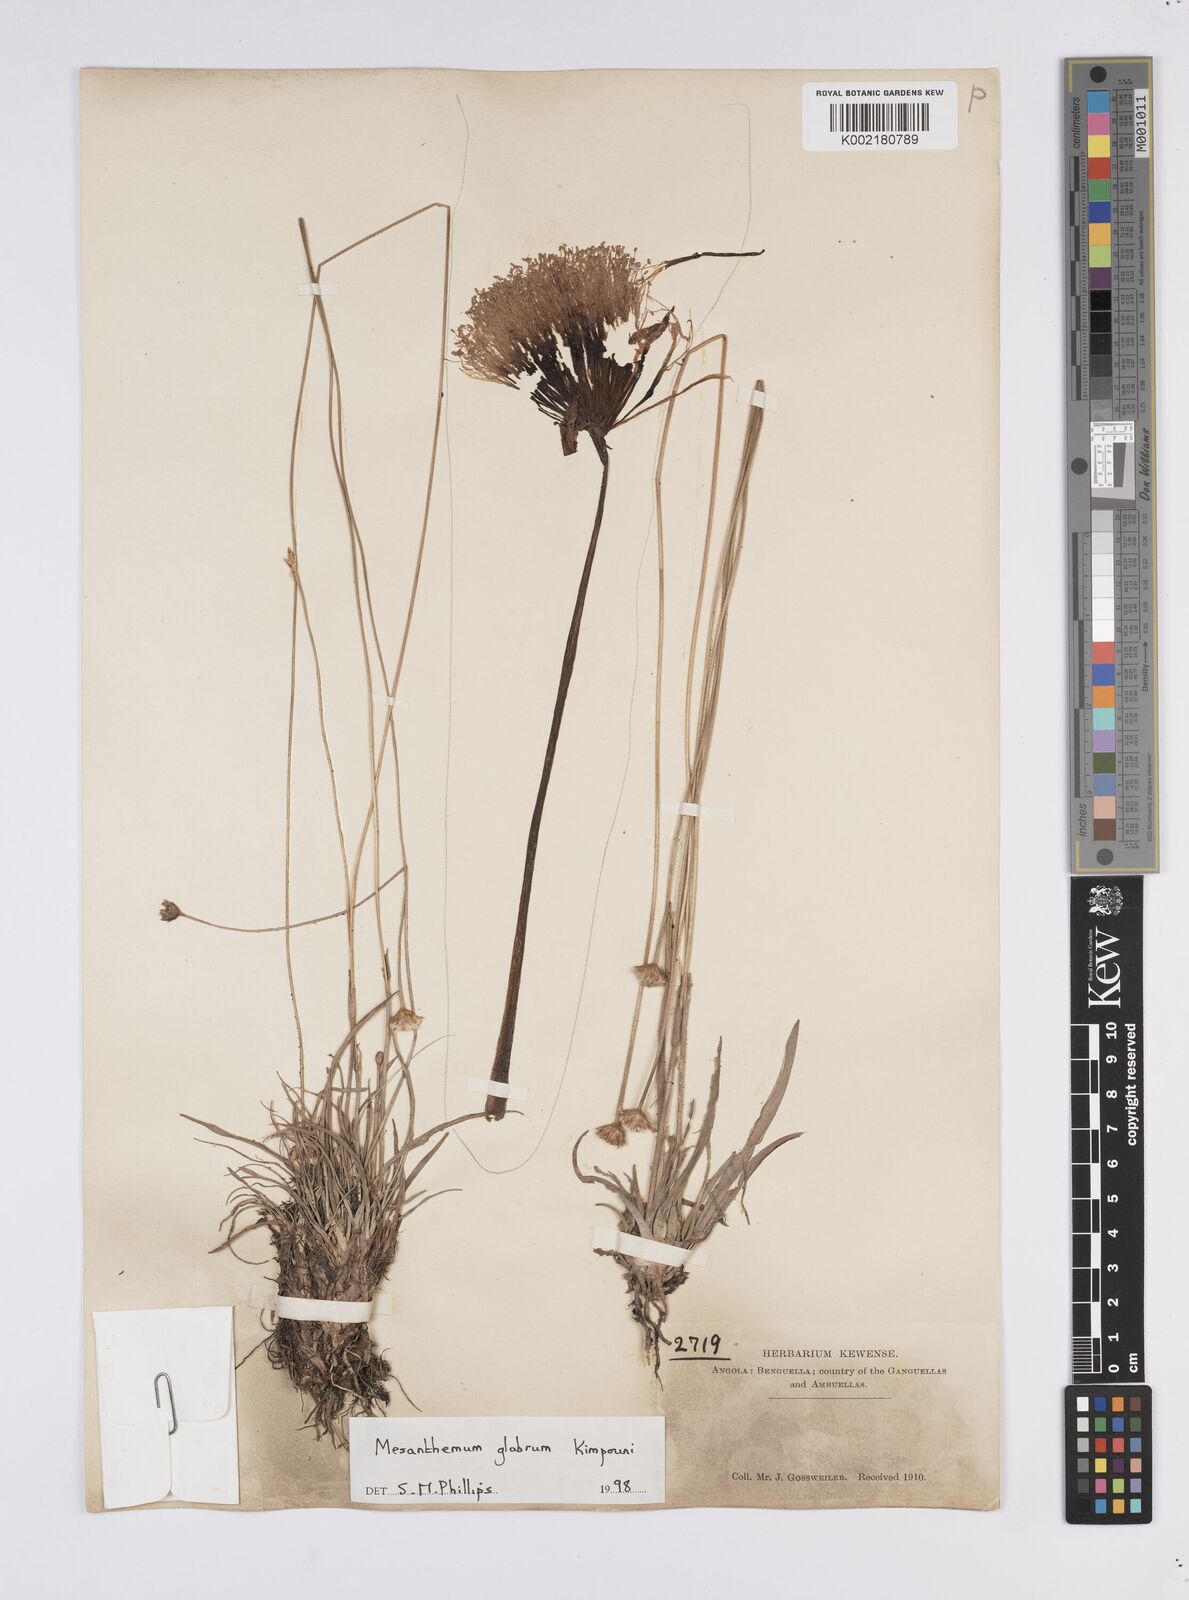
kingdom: Plantae
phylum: Tracheophyta
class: Liliopsida
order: Poales
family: Eriocaulaceae
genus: Mesanthemum
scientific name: Mesanthemum glabrum
